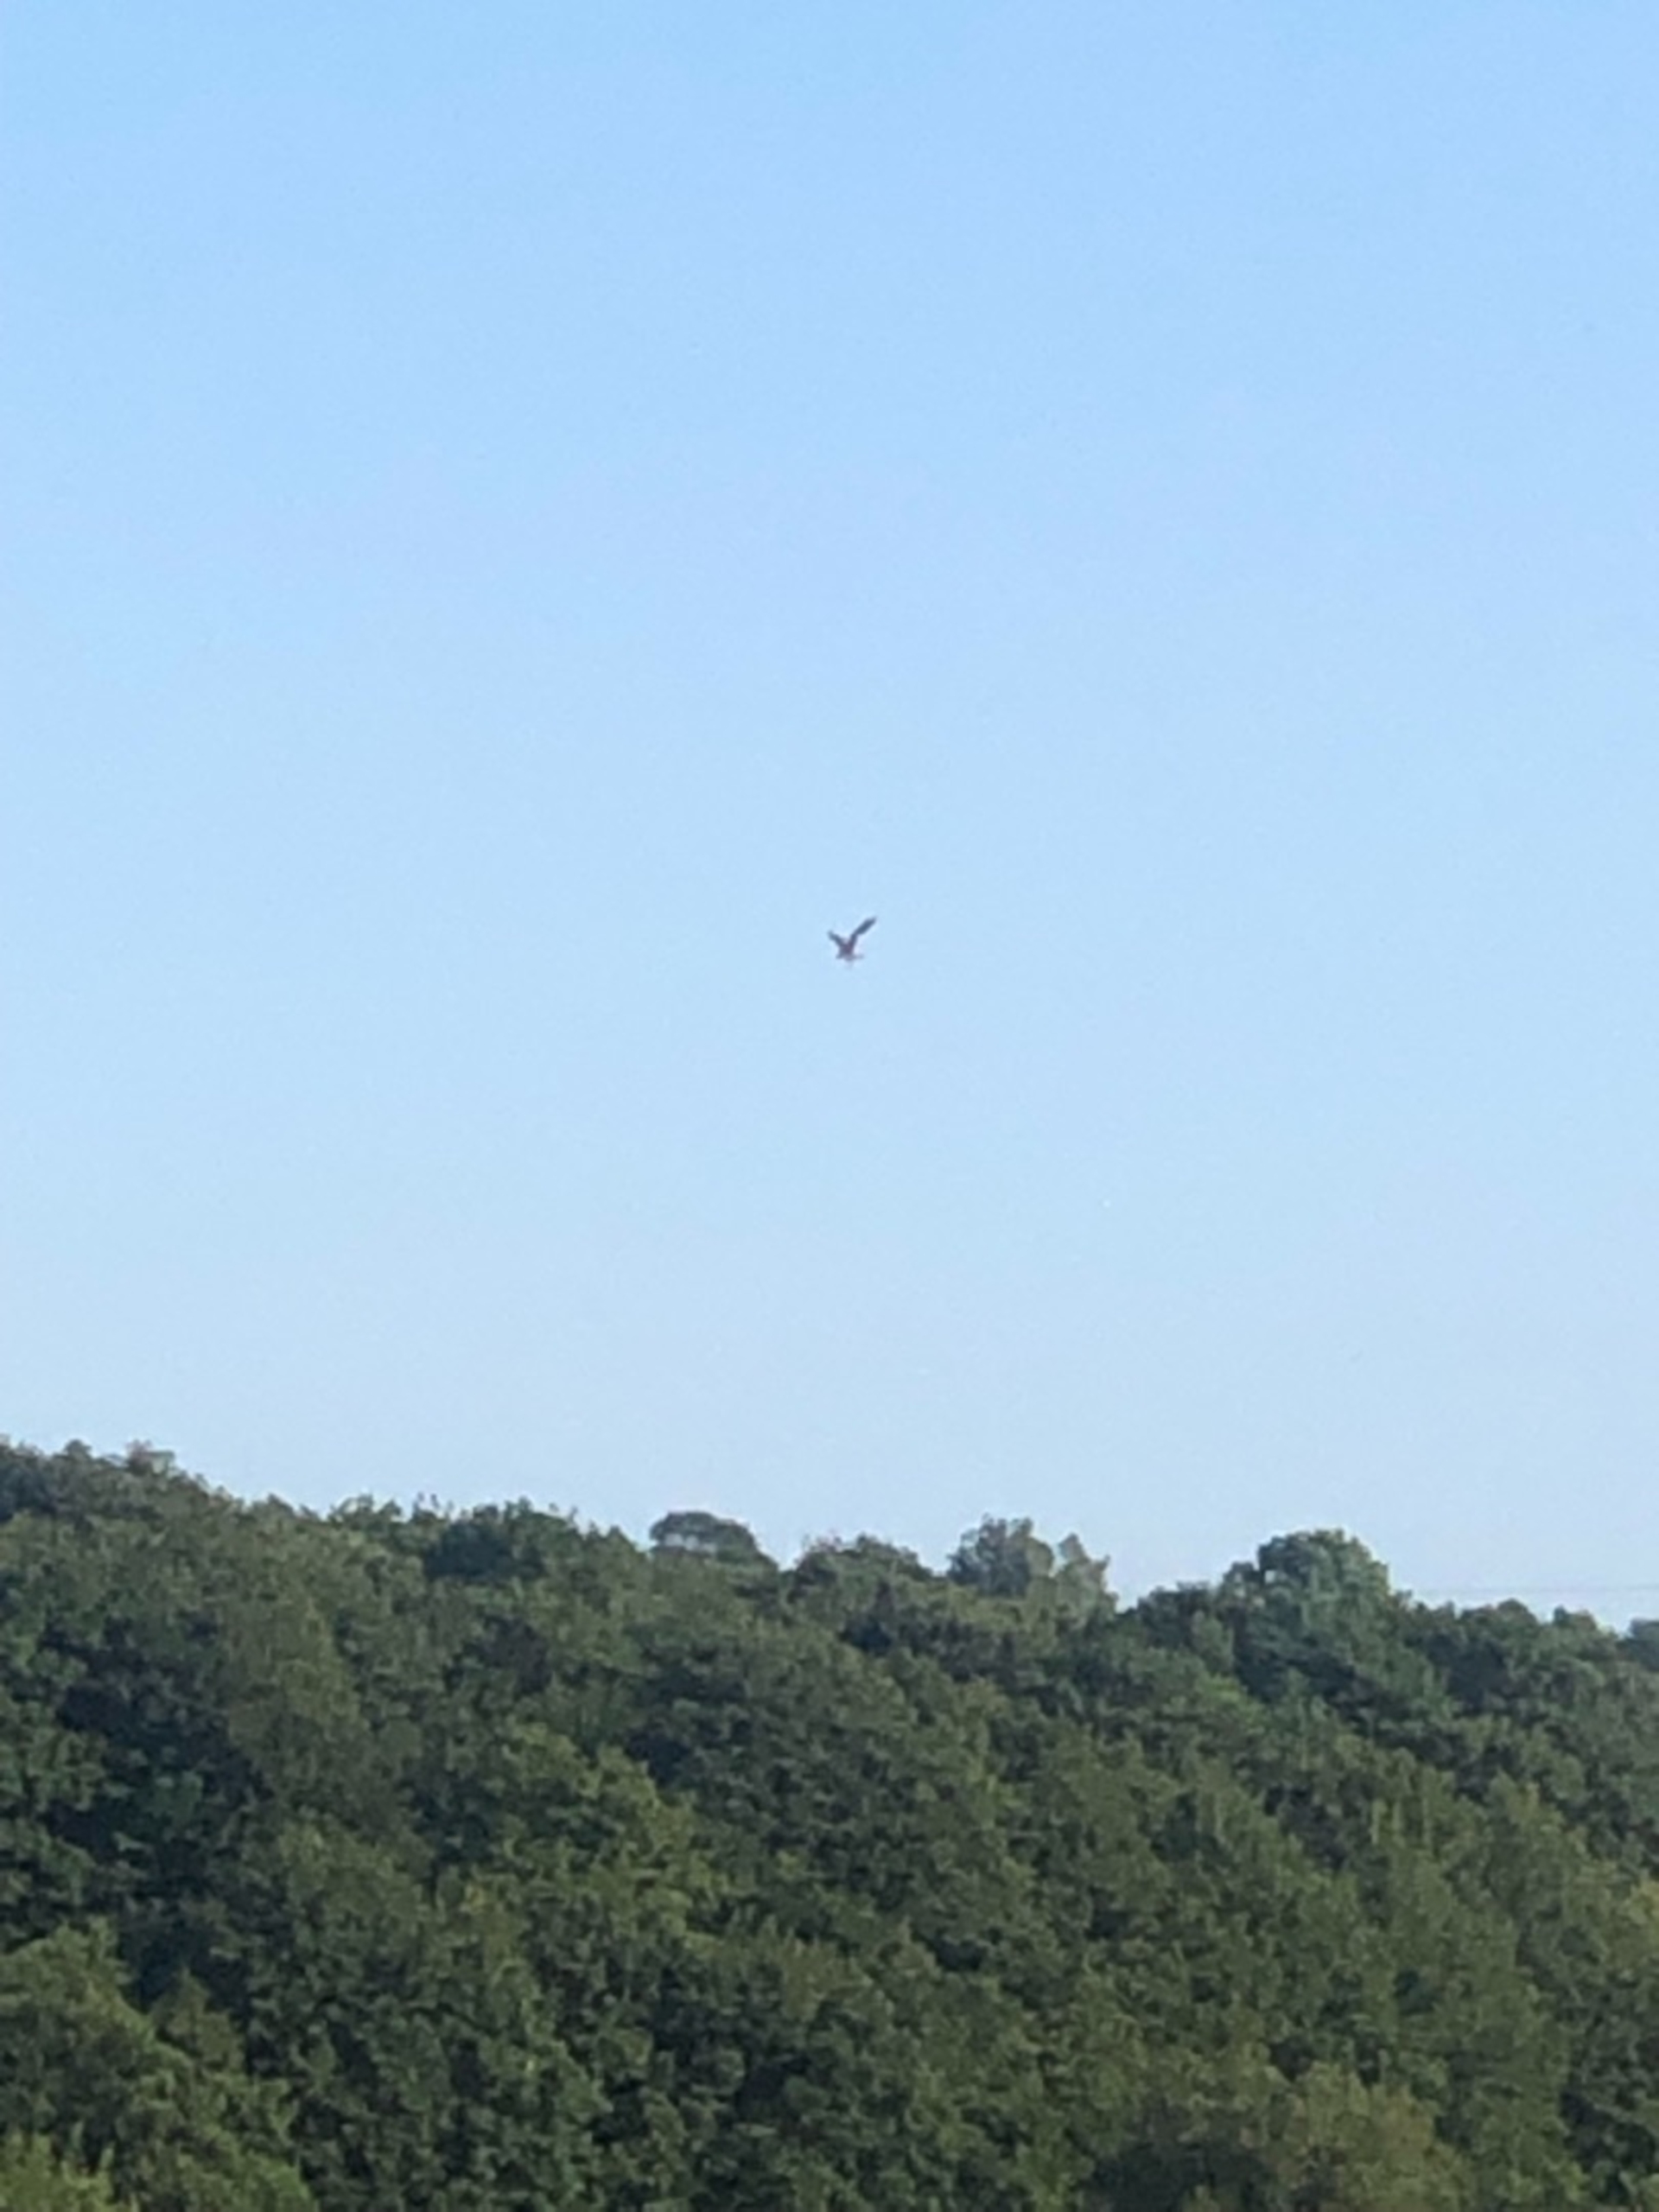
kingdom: Animalia
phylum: Chordata
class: Aves
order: Accipitriformes
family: Pandionidae
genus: Pandion
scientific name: Pandion haliaetus
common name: Fiskeørn
